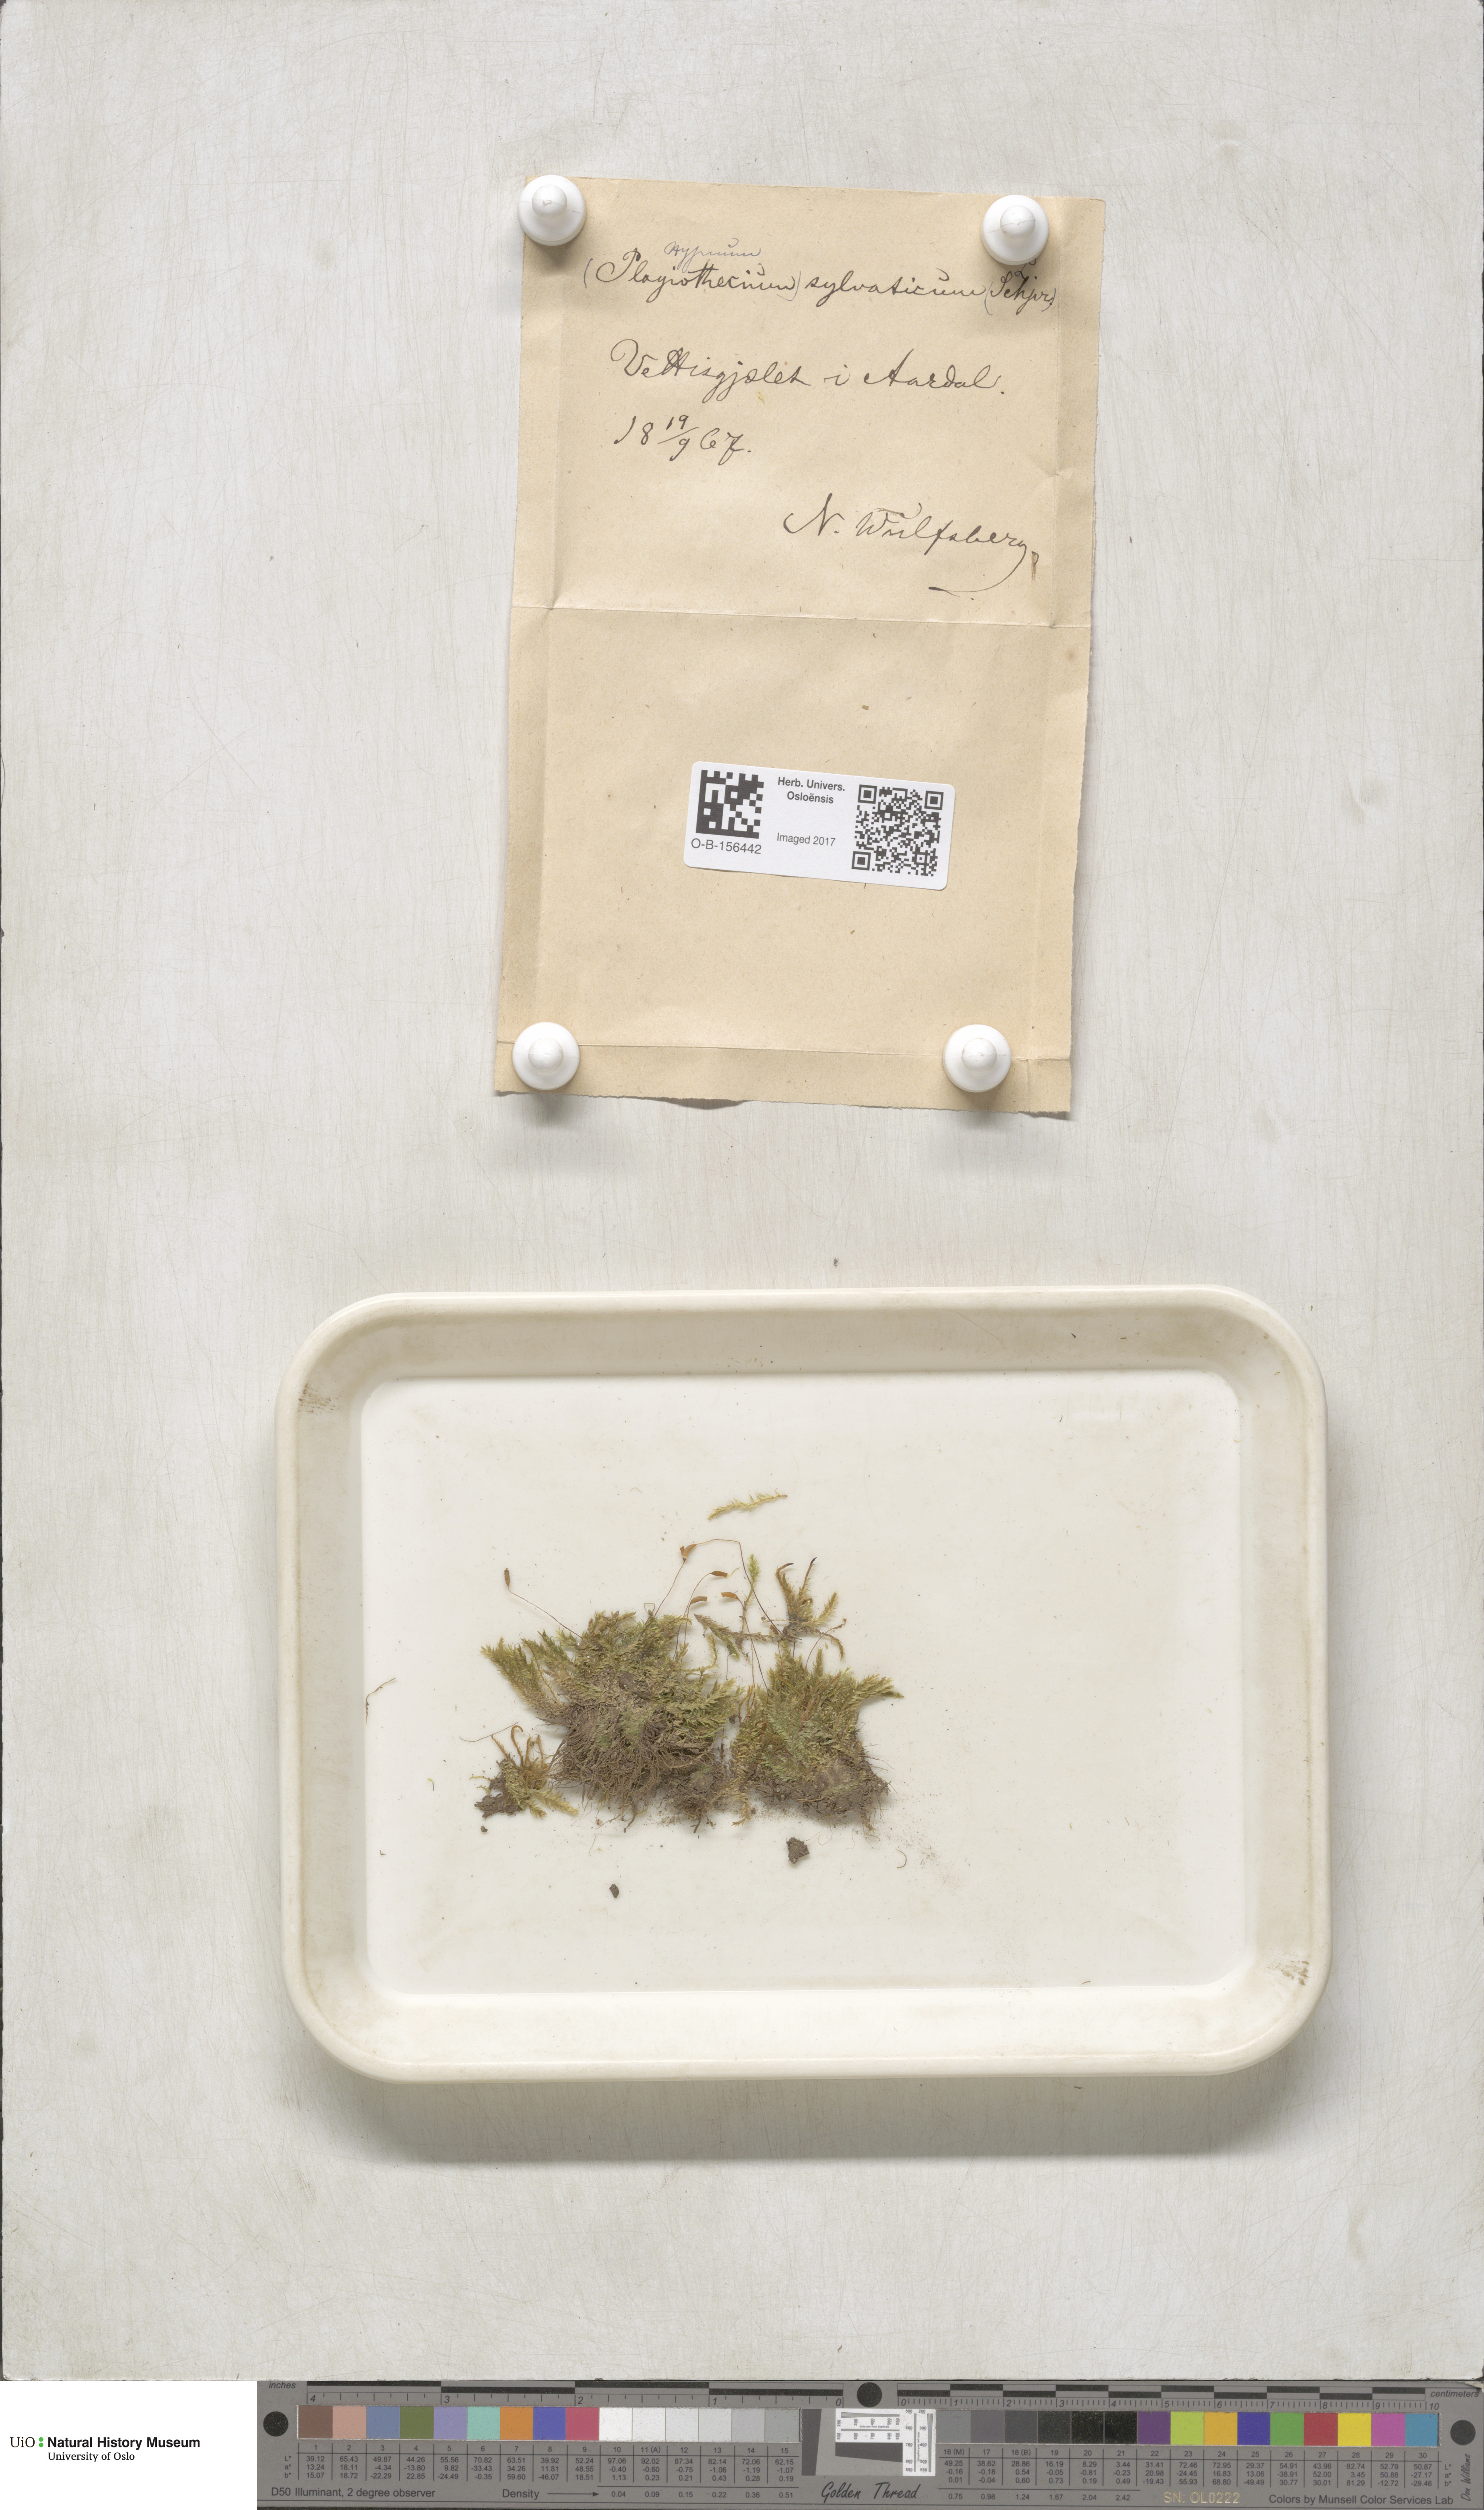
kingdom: Plantae
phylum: Bryophyta
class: Bryopsida
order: Hypnales
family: Plagiotheciaceae
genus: Plagiothecium
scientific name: Plagiothecium nemorale
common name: Woodsy silk-moss
